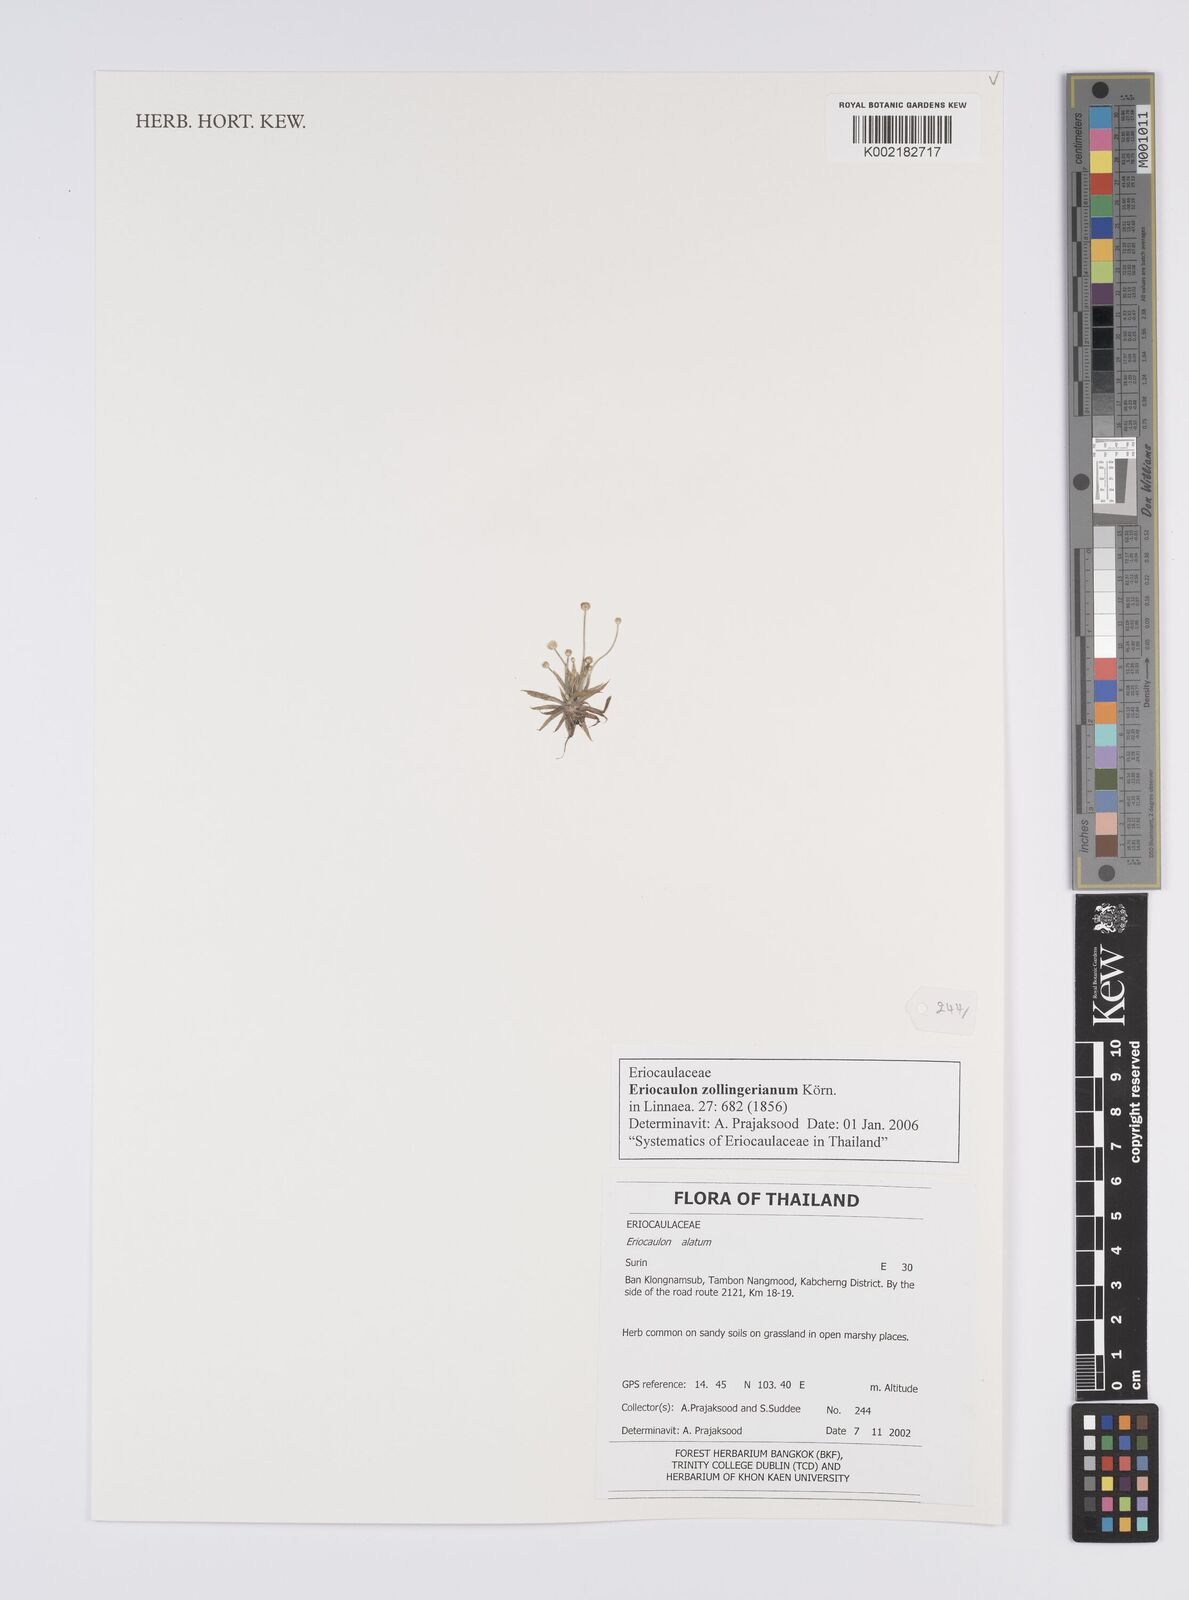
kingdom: Plantae
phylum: Tracheophyta
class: Liliopsida
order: Poales
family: Eriocaulaceae
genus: Eriocaulon
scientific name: Eriocaulon zollingerianum
